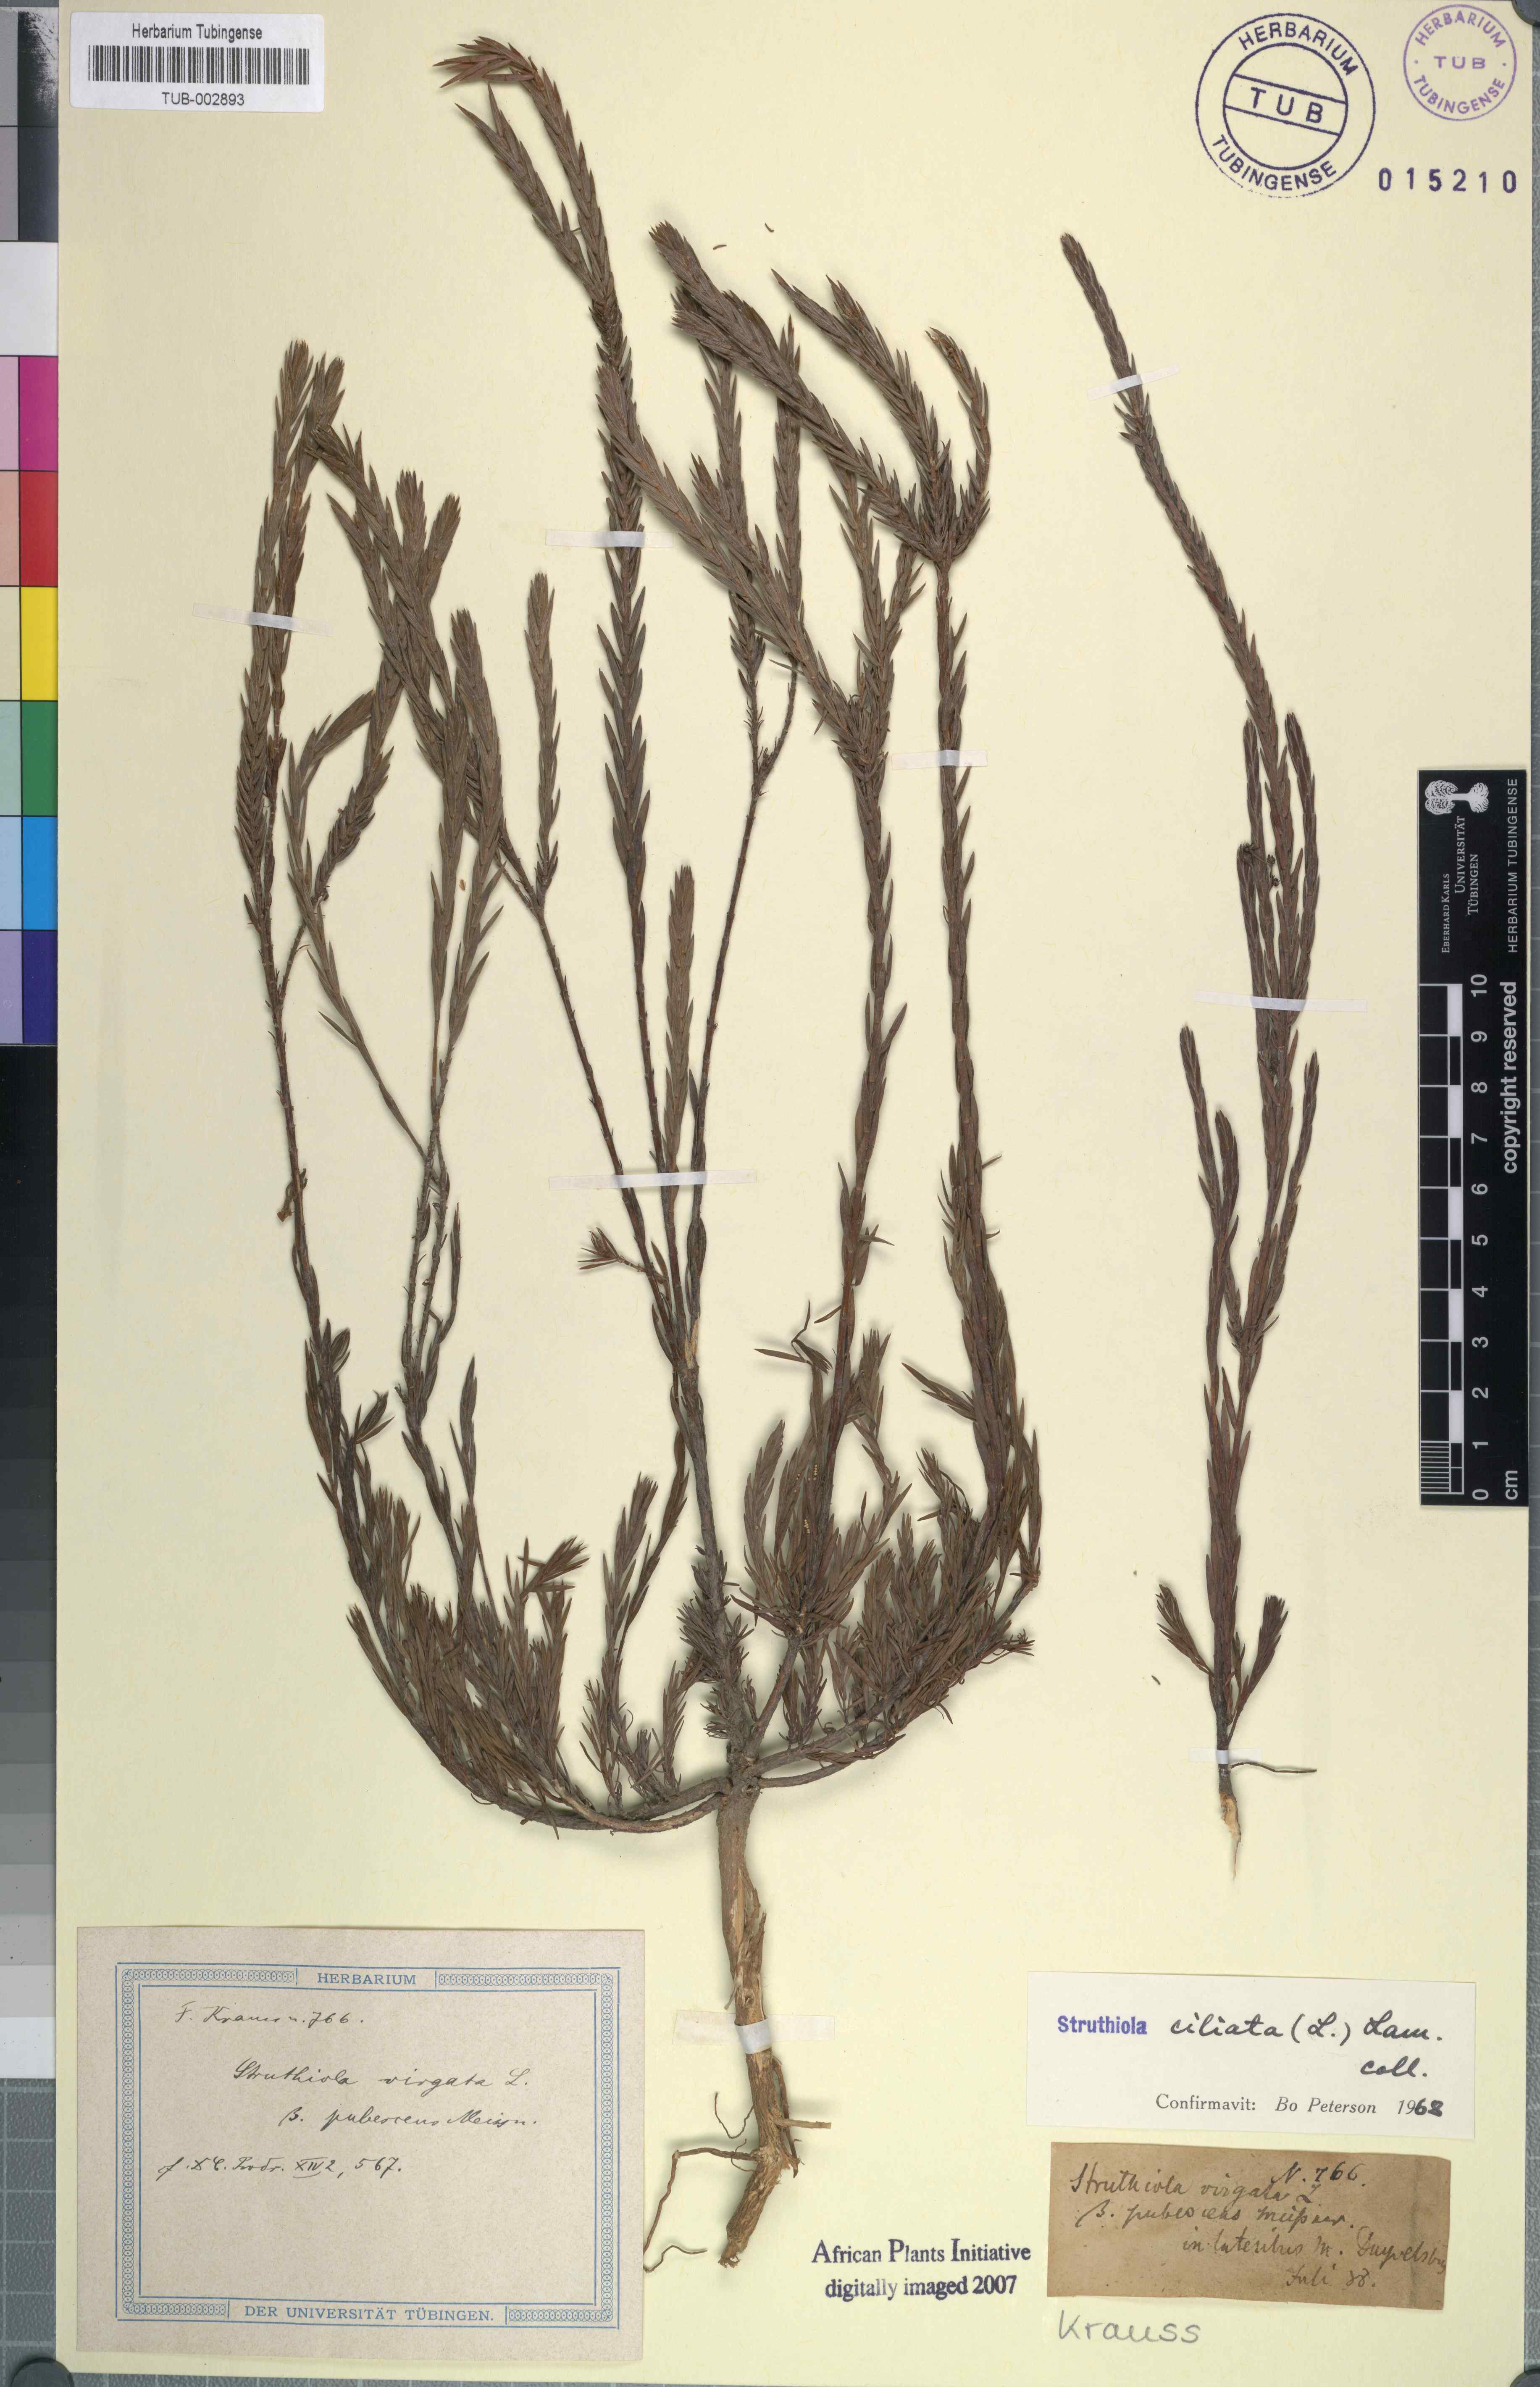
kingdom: Plantae
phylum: Tracheophyta
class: Magnoliopsida
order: Malvales
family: Thymelaeaceae
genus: Struthiola
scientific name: Struthiola ciliata
